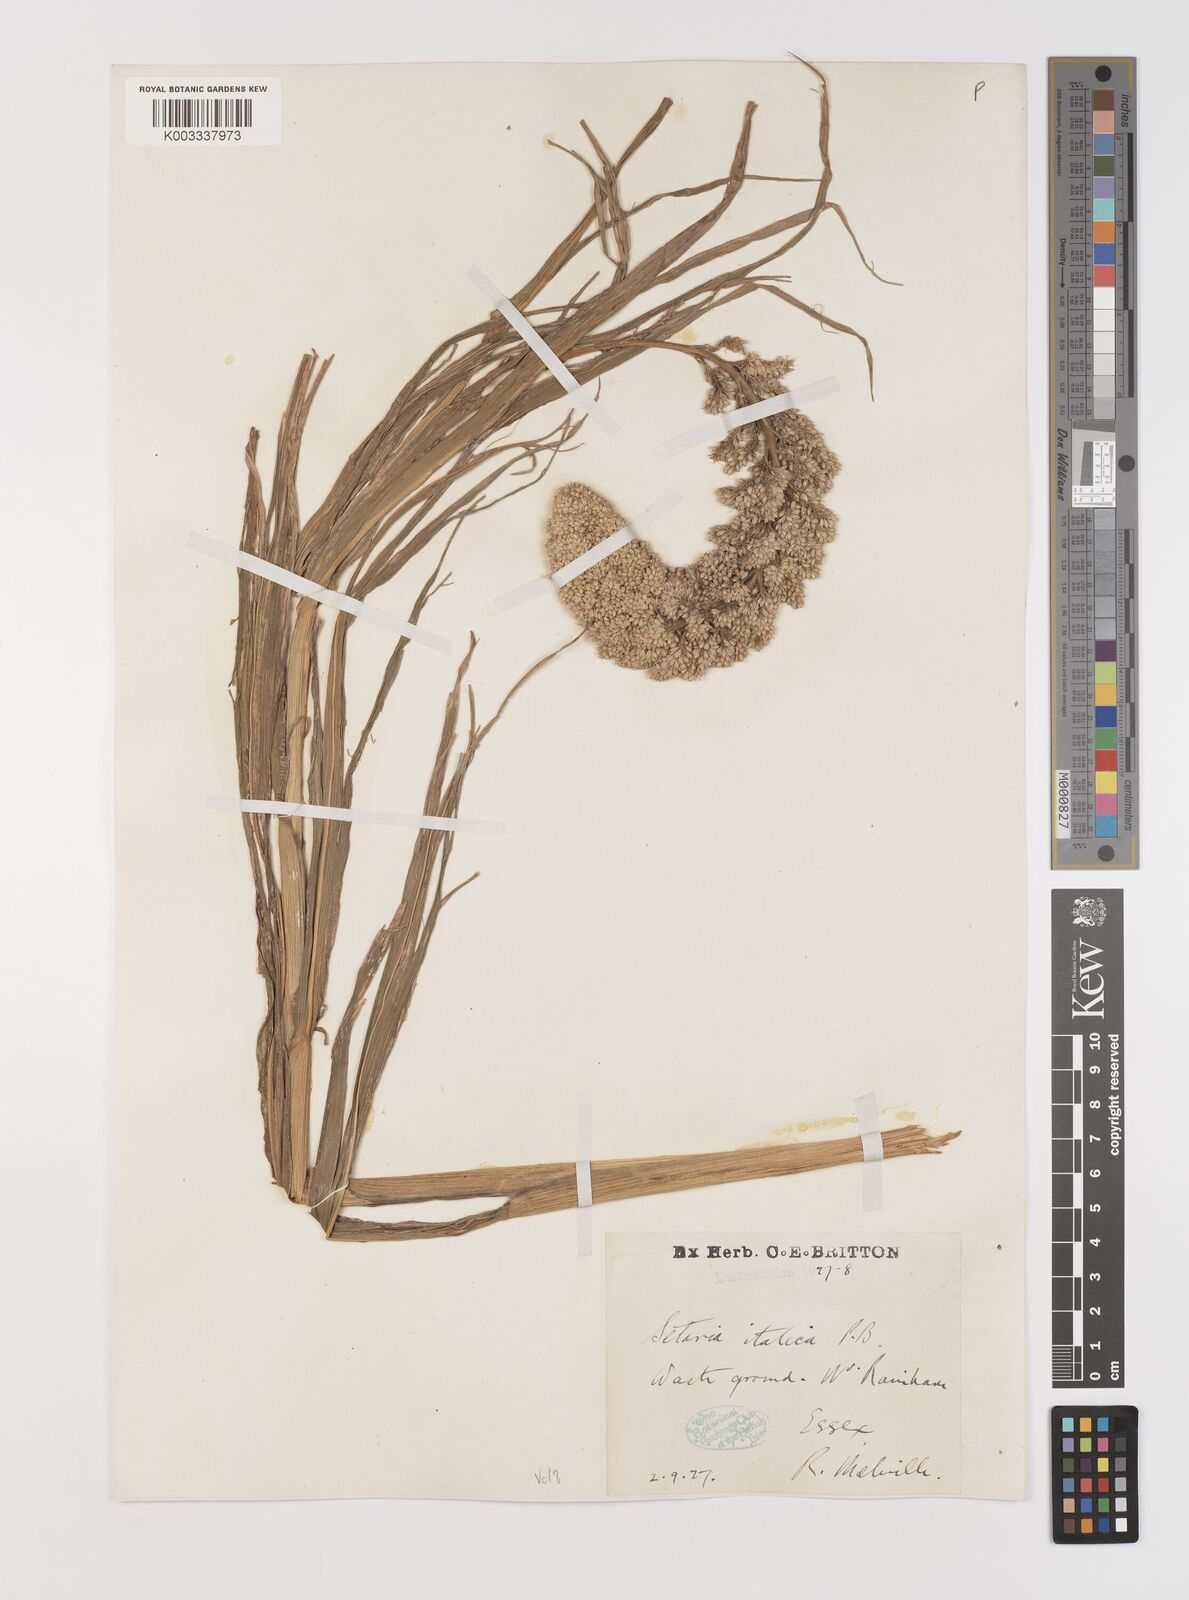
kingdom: Plantae
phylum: Tracheophyta
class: Liliopsida
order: Poales
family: Poaceae
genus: Setaria
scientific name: Setaria italica
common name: Foxtail bristle-grass
